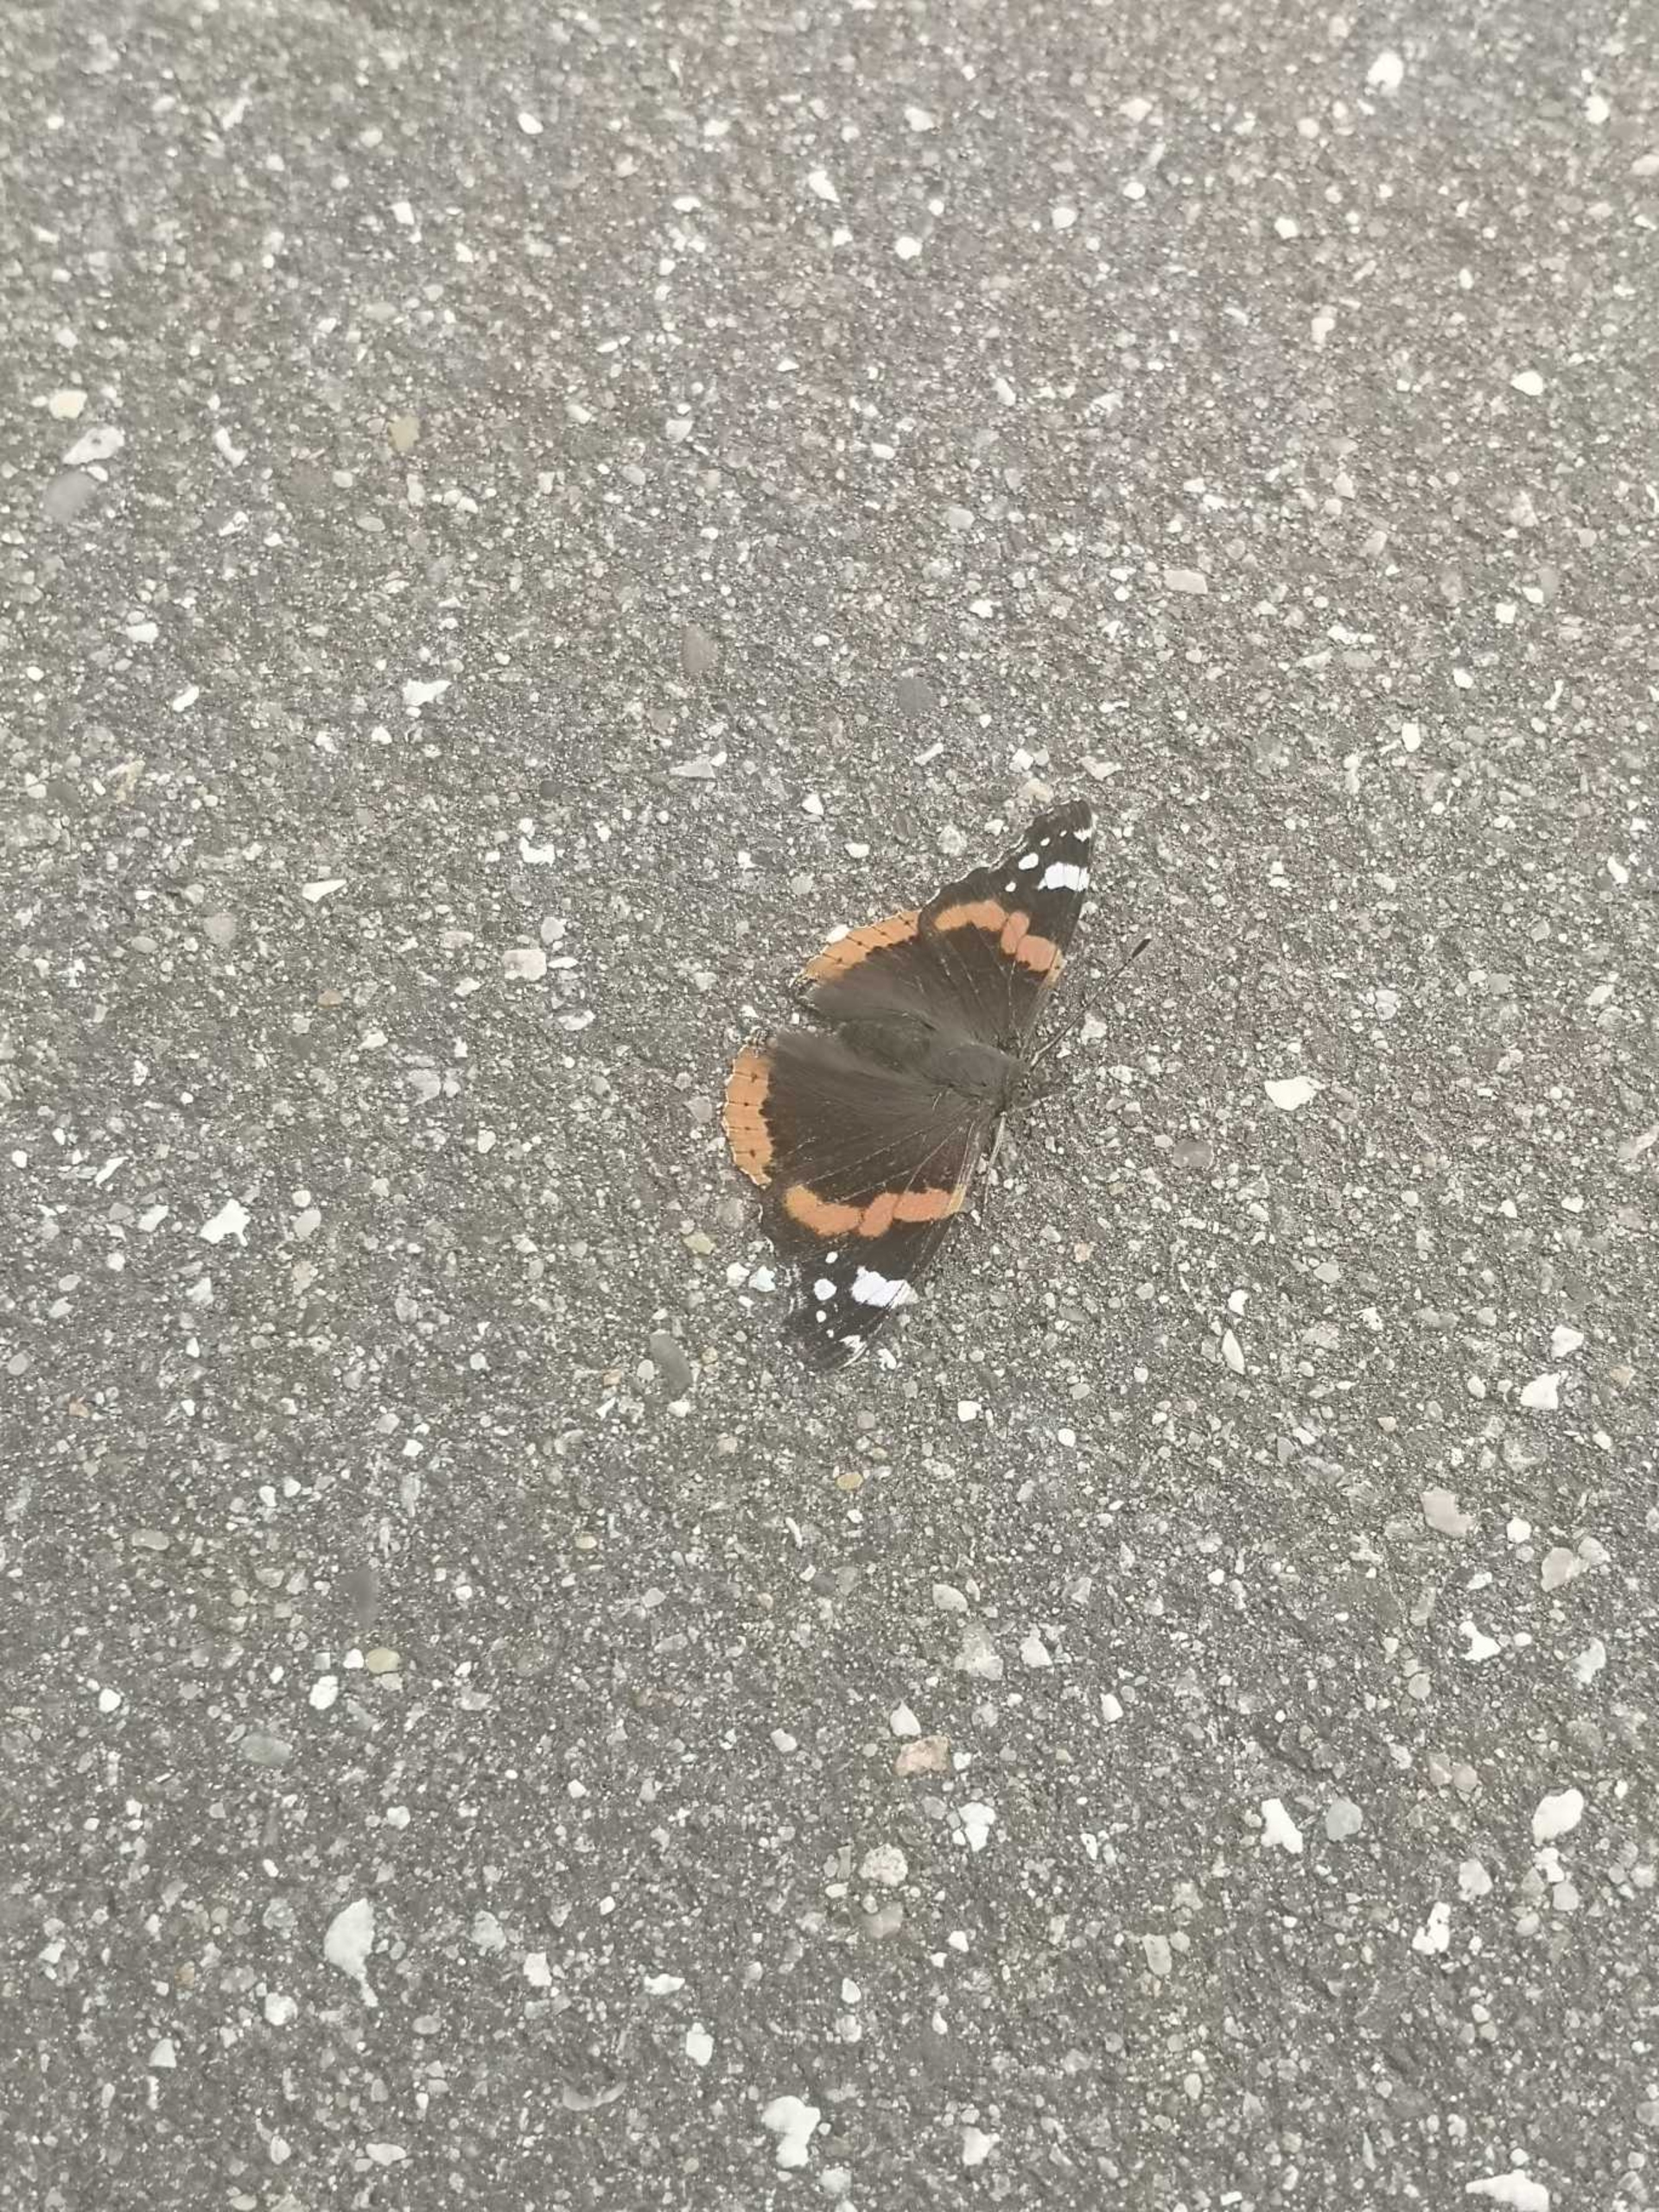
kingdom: Animalia
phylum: Arthropoda
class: Insecta
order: Lepidoptera
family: Nymphalidae
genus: Vanessa
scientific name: Vanessa atalanta
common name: Admiral
